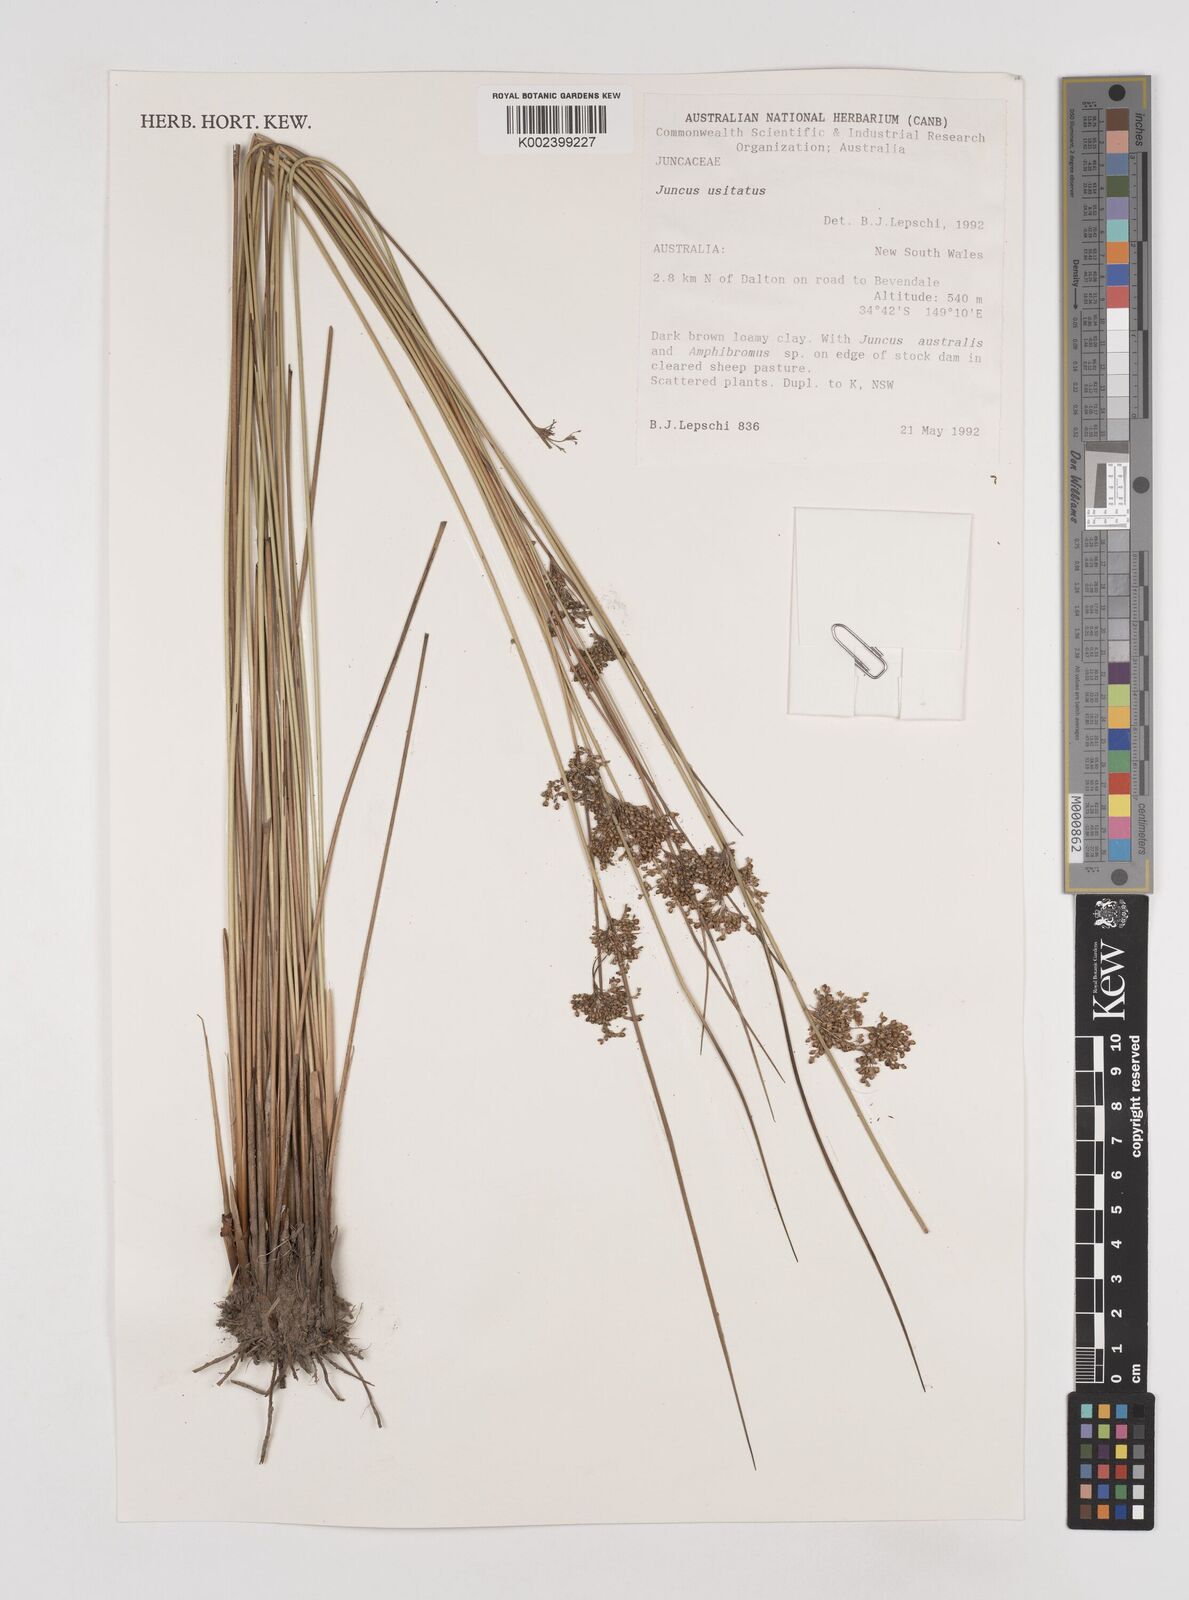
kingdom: Plantae
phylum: Tracheophyta
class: Liliopsida
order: Poales
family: Juncaceae
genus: Juncus
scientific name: Juncus usitatus
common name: Rush
